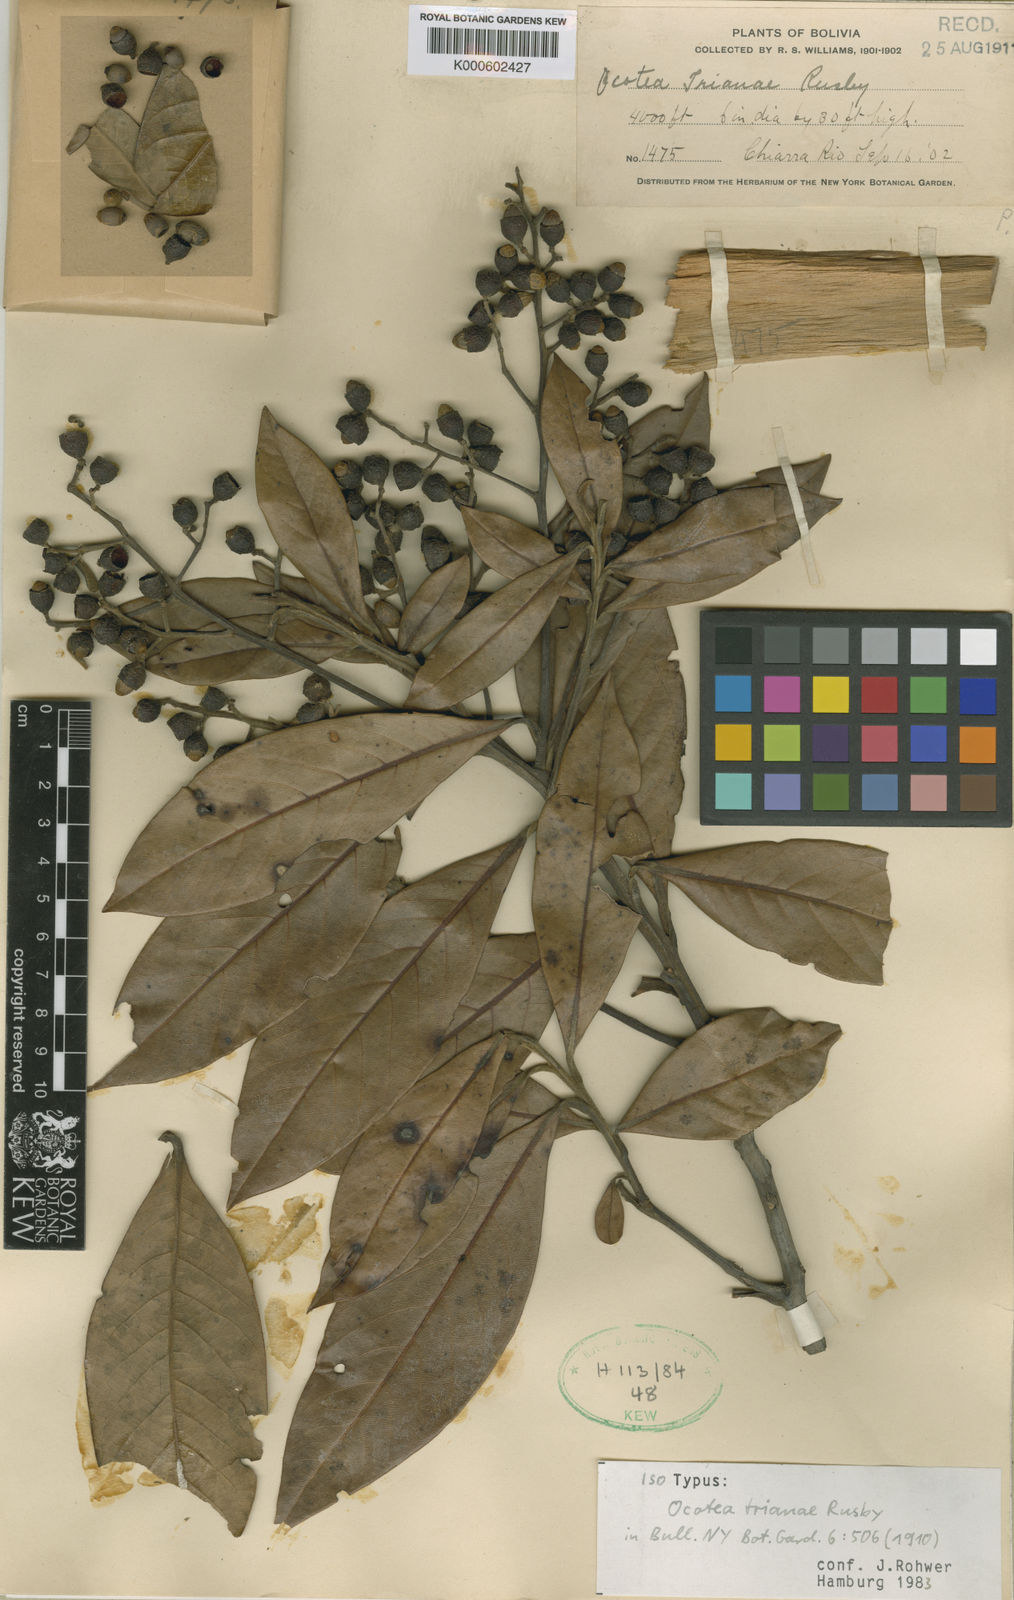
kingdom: Plantae
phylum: Tracheophyta
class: Magnoliopsida
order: Laurales
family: Lauraceae
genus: Mespilodaphne
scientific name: Mespilodaphne opifera
